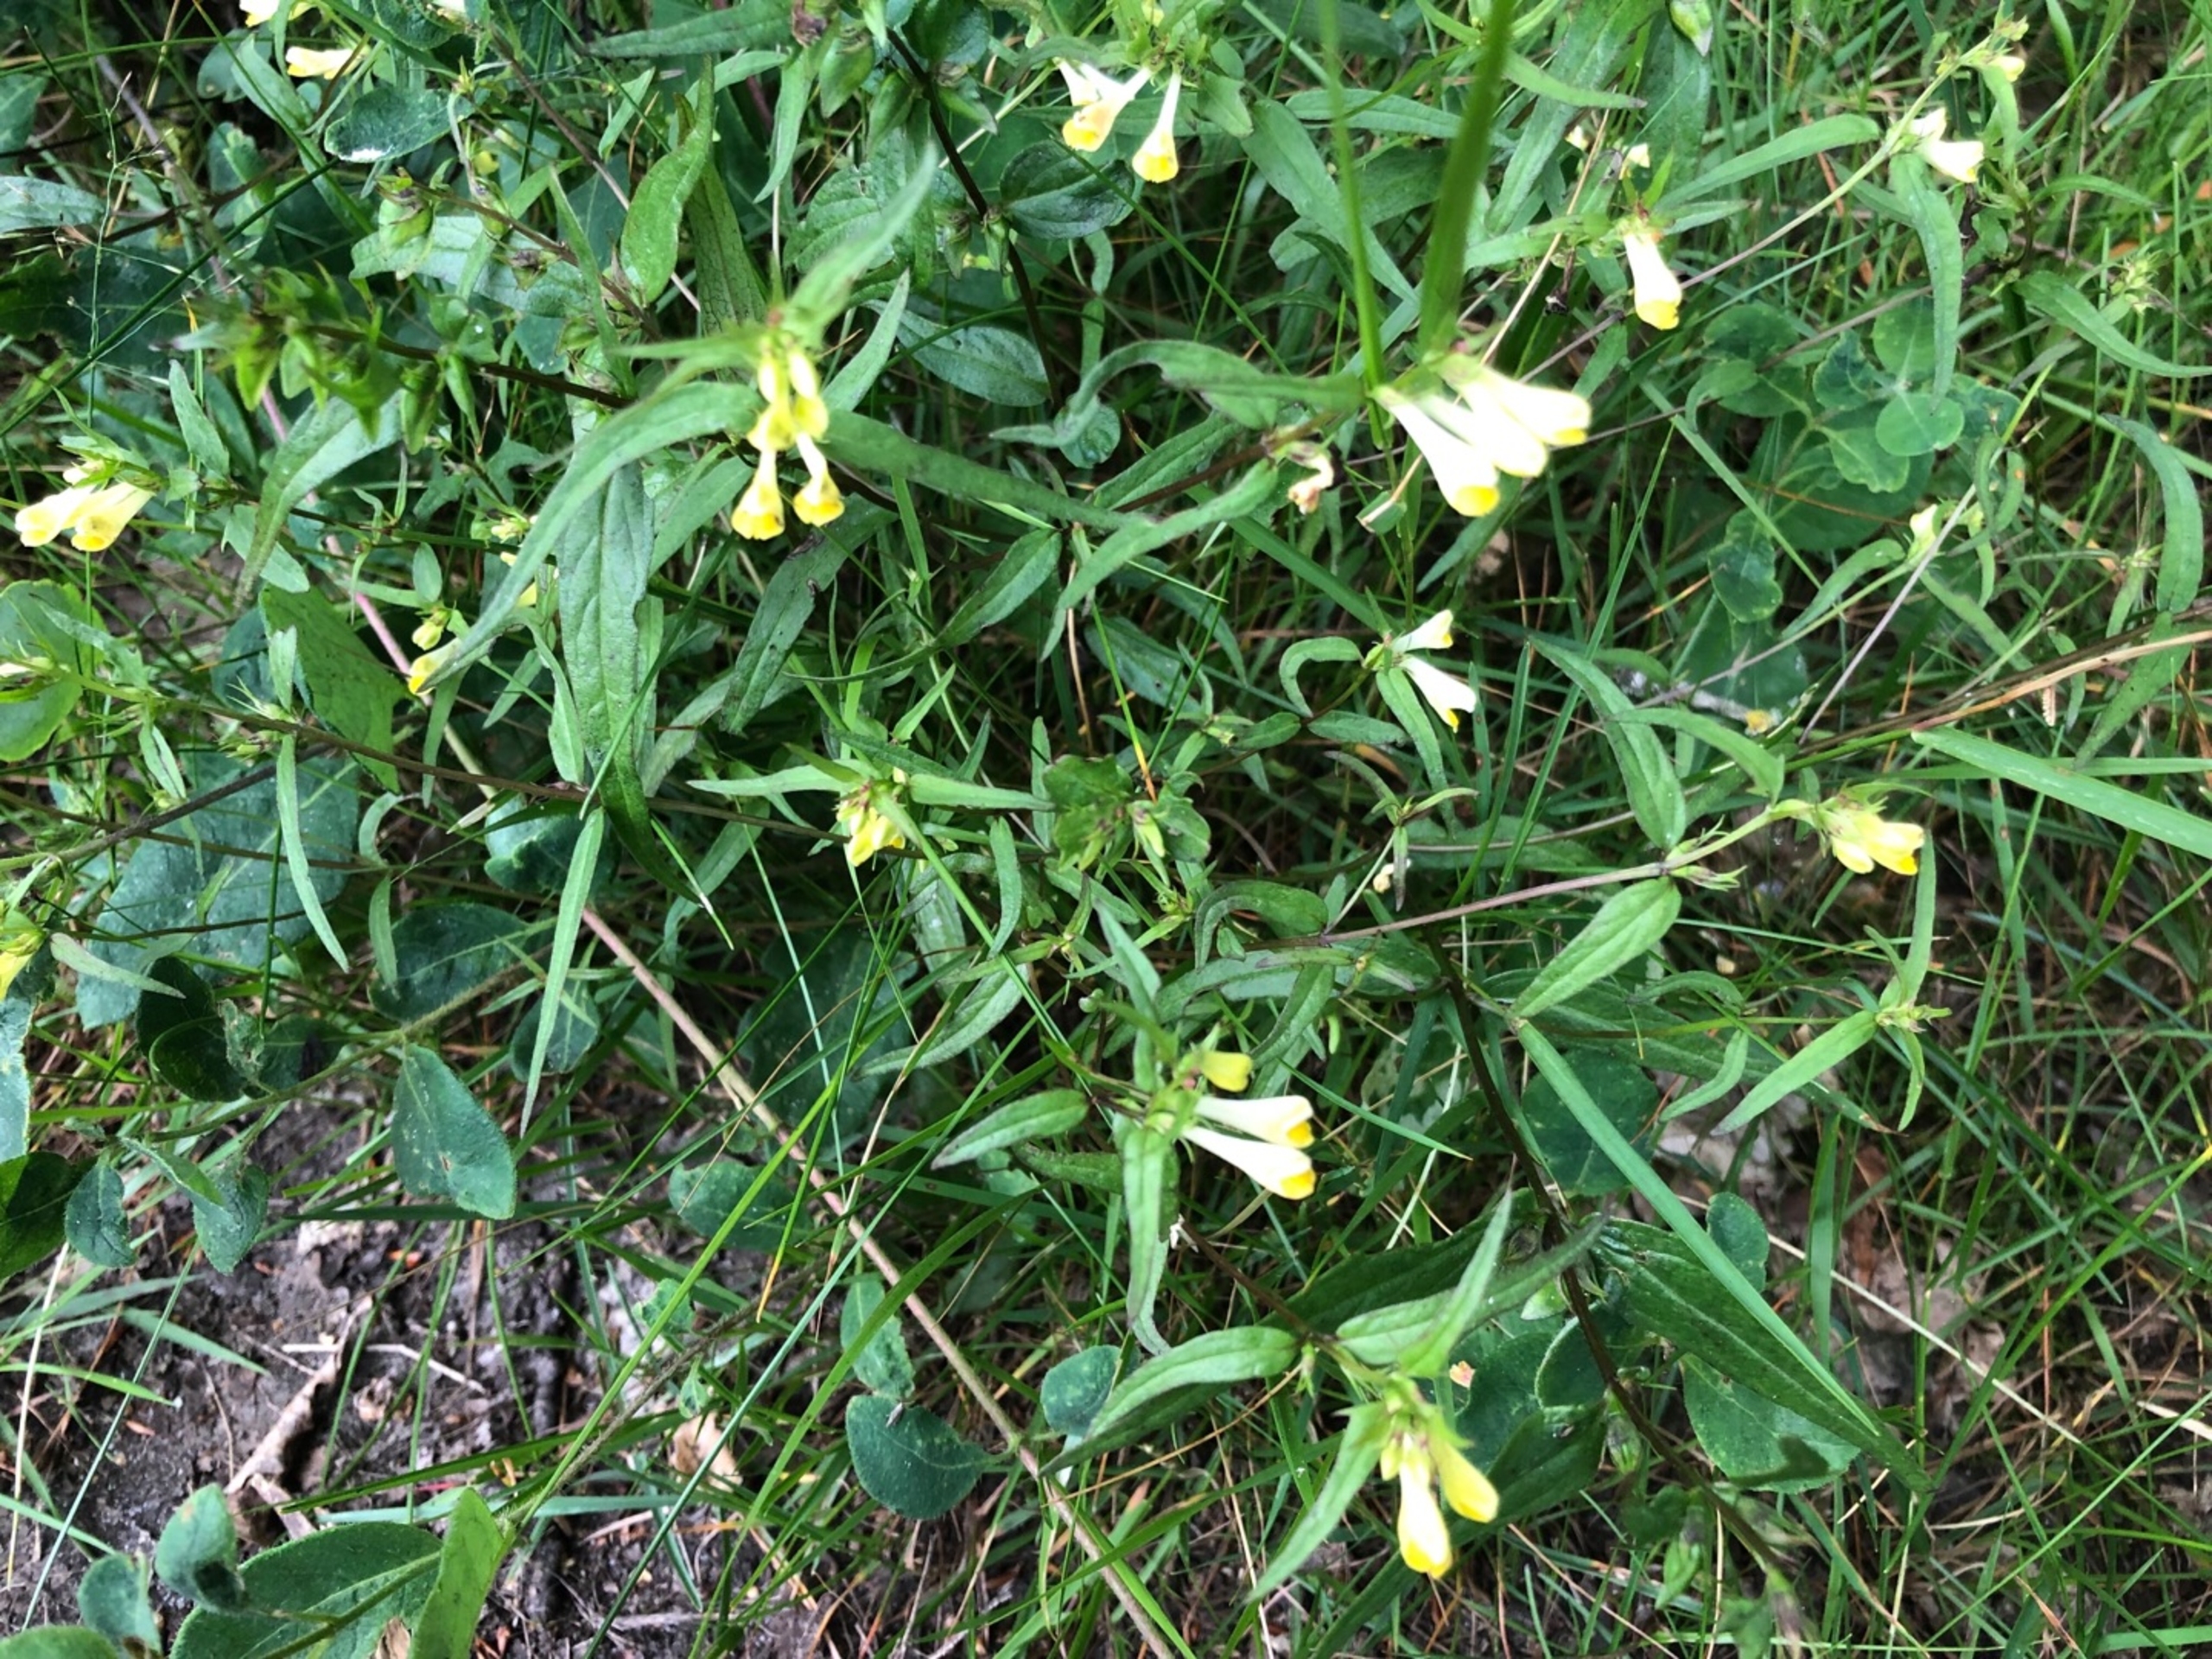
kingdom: Plantae
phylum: Tracheophyta
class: Magnoliopsida
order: Lamiales
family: Orobanchaceae
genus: Melampyrum
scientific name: Melampyrum pratense
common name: Almindelig kohvede
